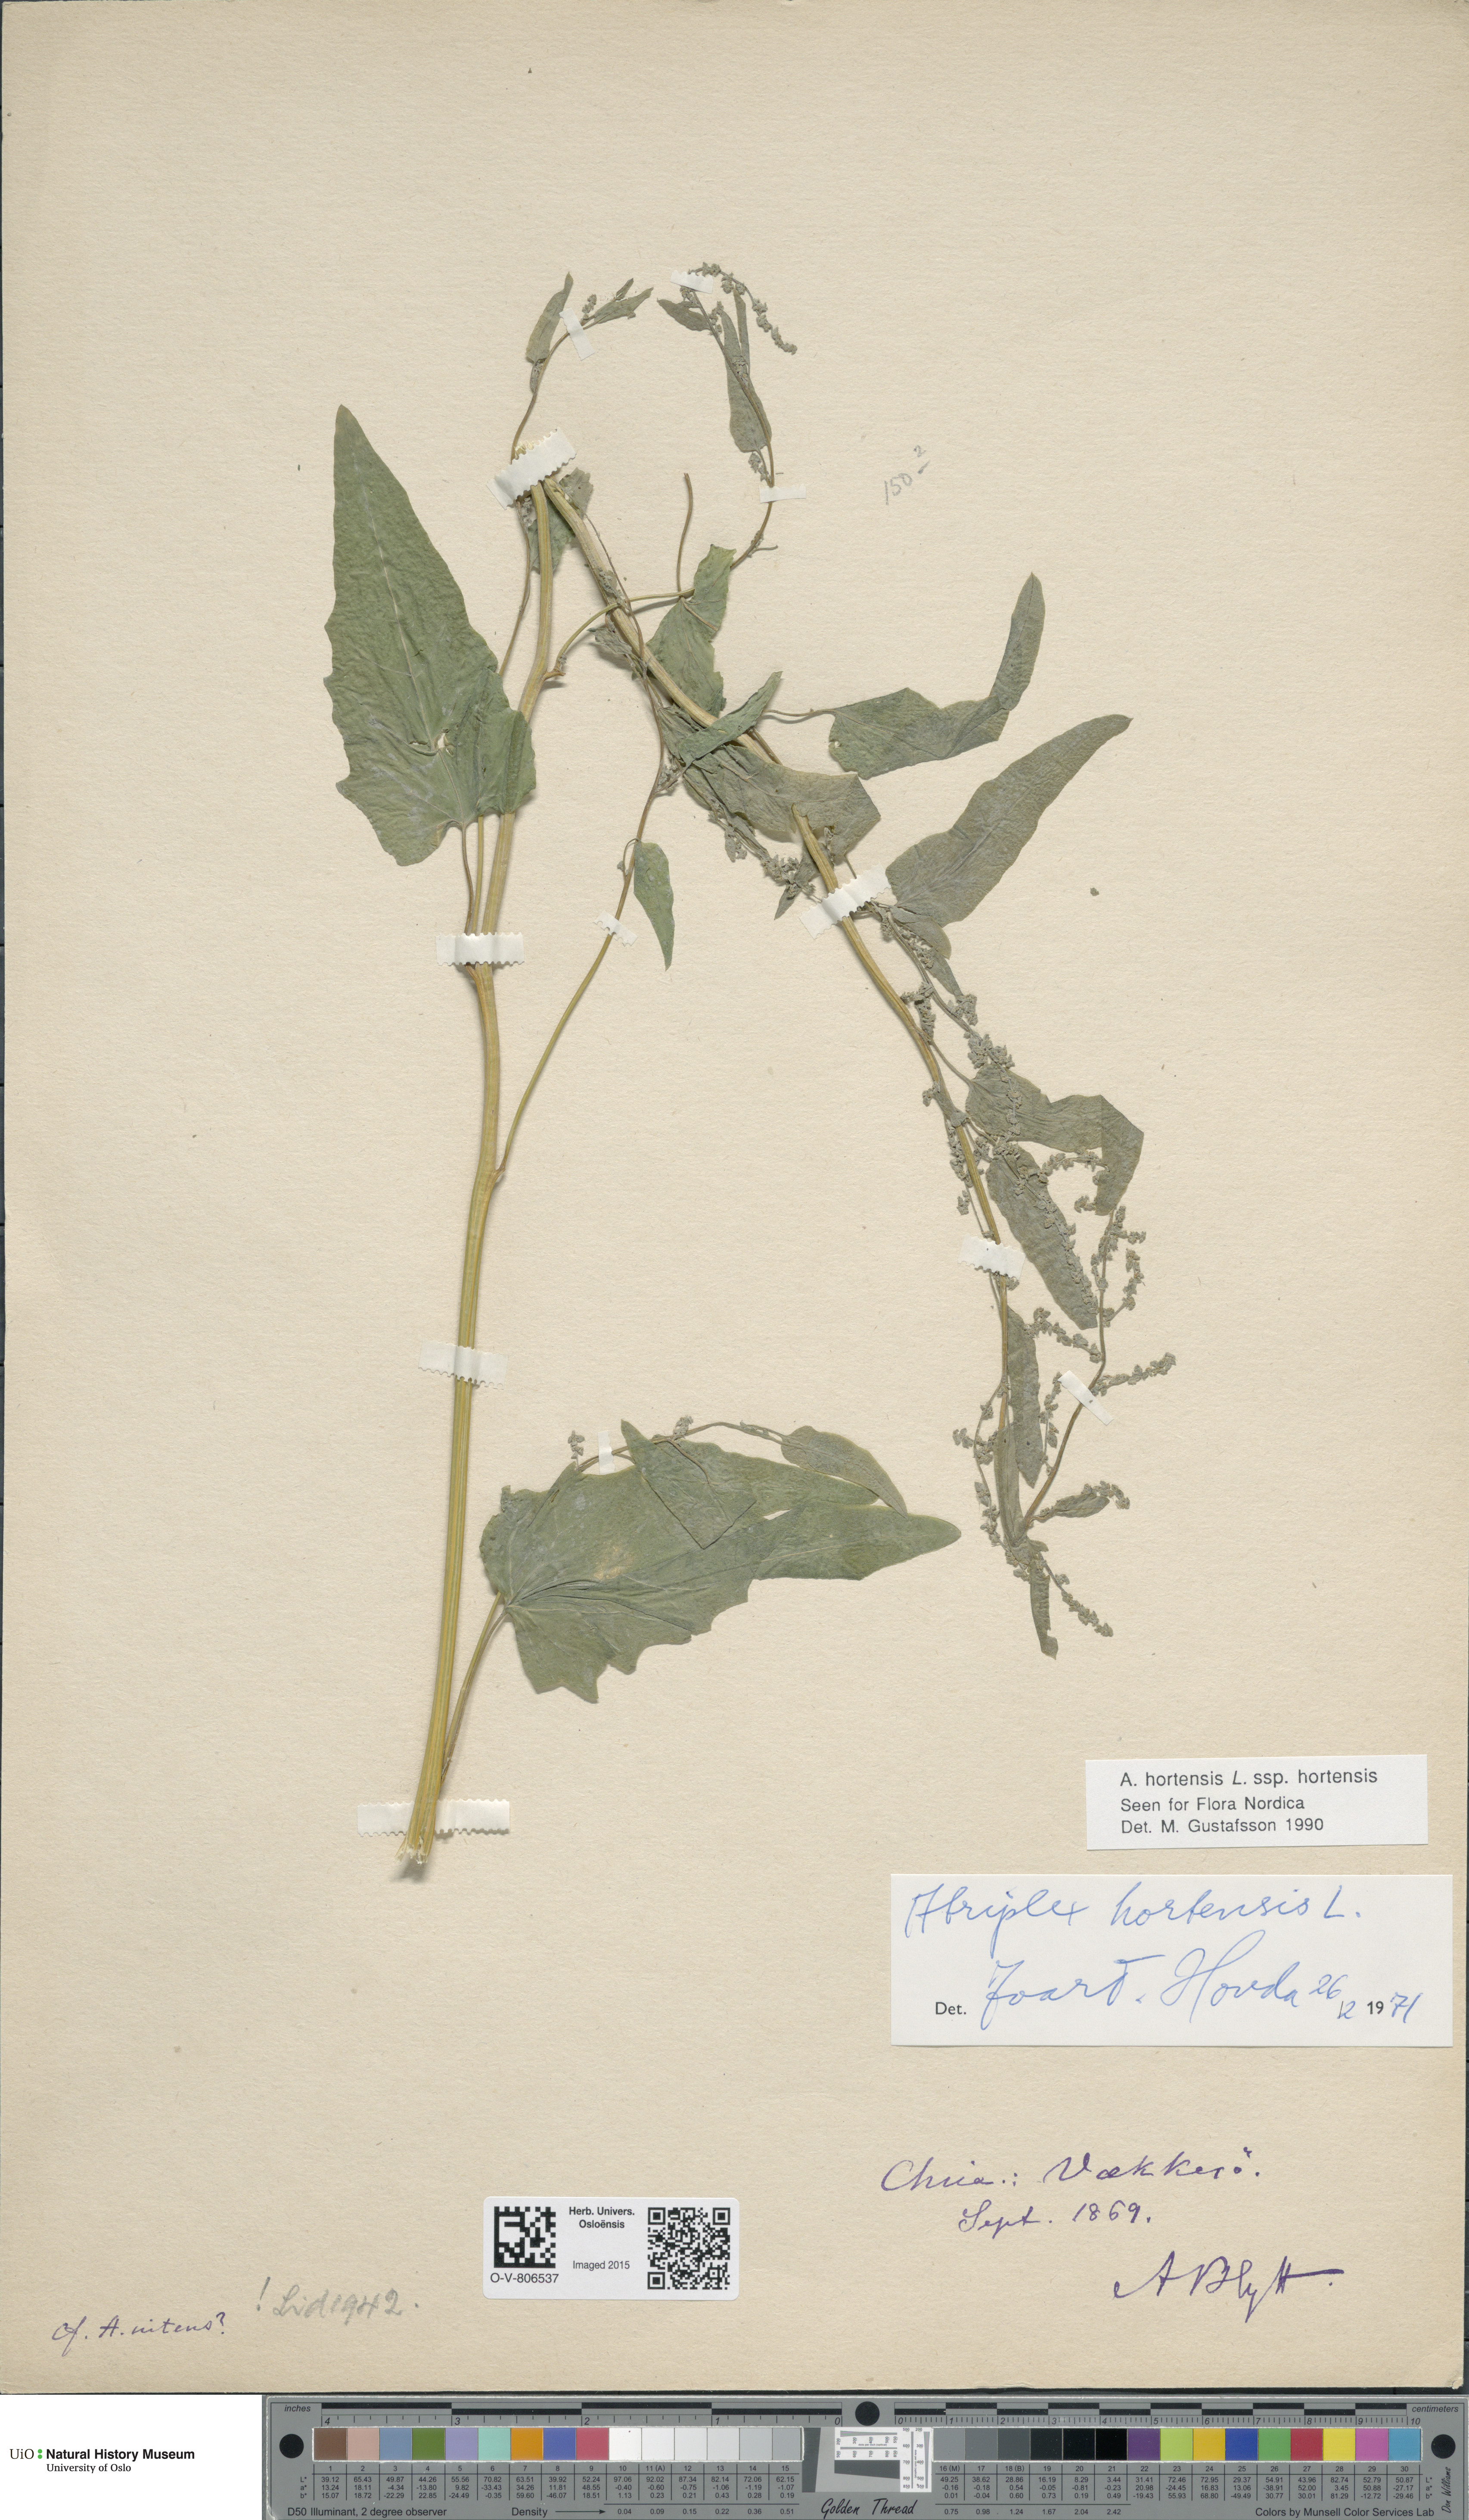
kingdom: Plantae
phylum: Tracheophyta
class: Magnoliopsida
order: Caryophyllales
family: Amaranthaceae
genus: Atriplex
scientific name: Atriplex hortensis
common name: Garden orache
